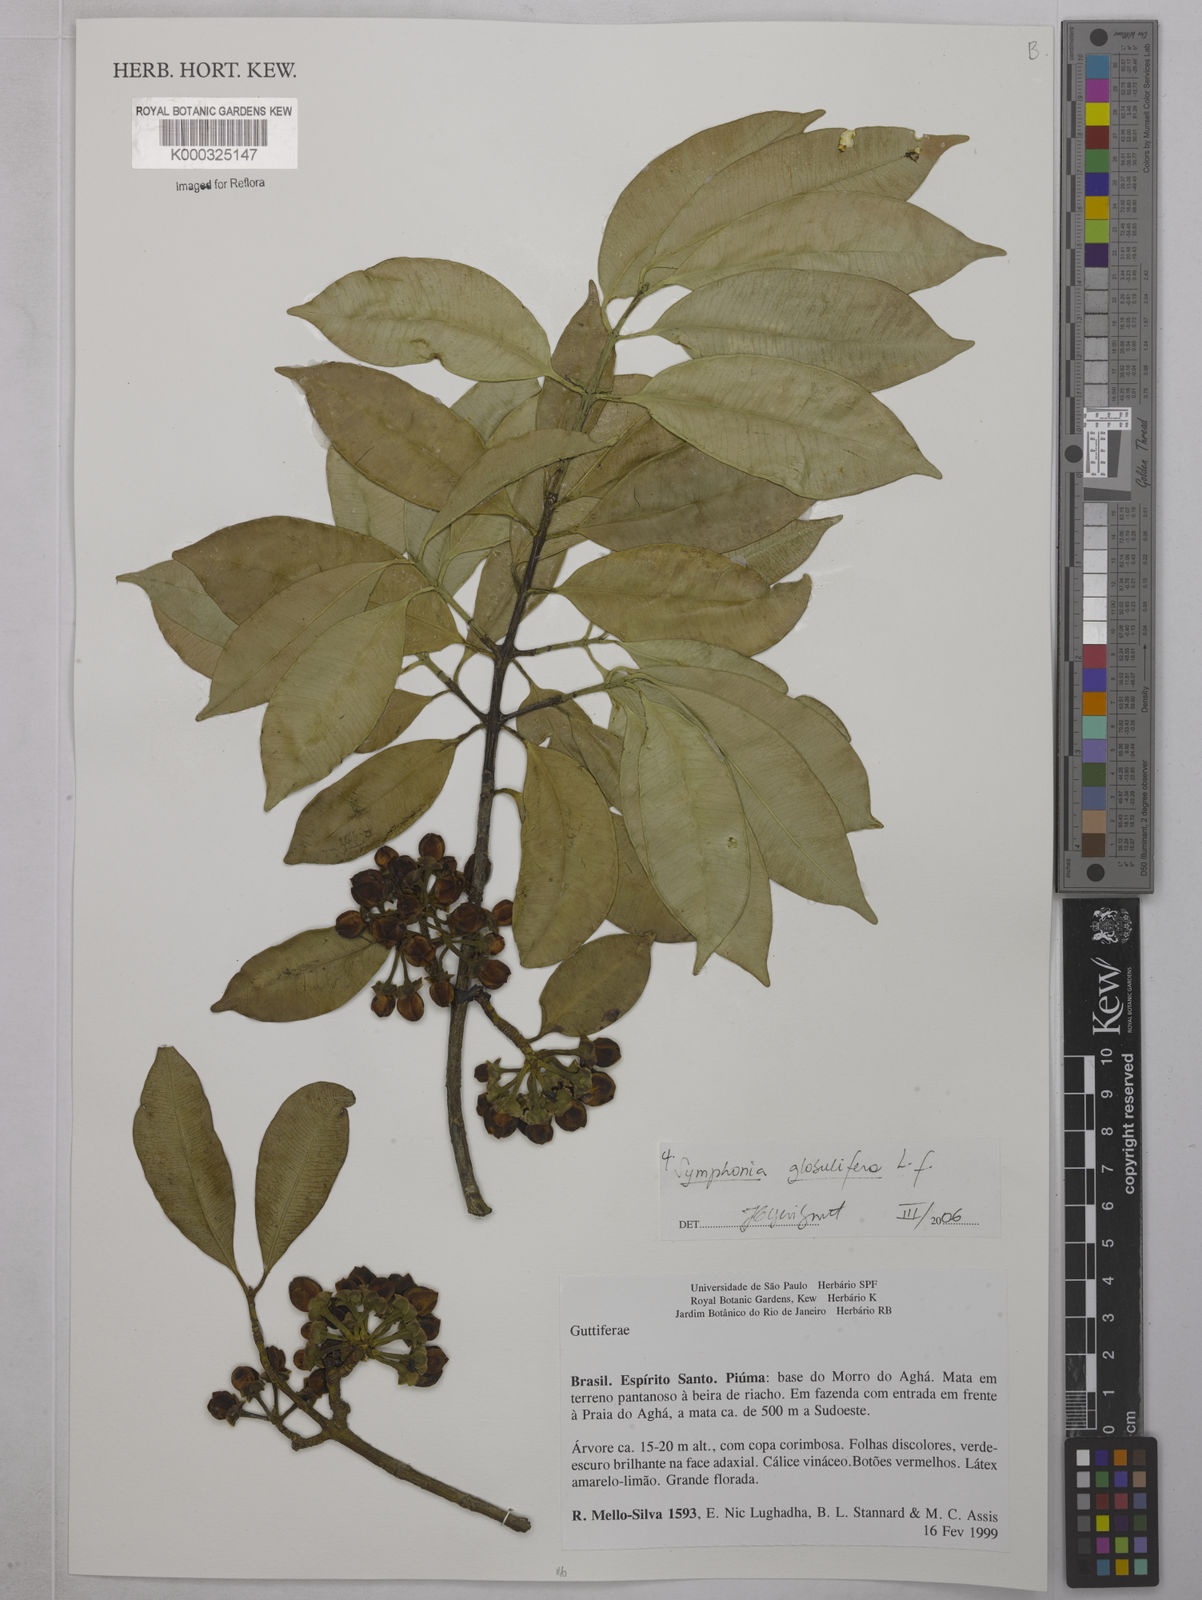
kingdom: Plantae
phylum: Tracheophyta
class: Magnoliopsida
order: Malpighiales
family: Clusiaceae
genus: Symphonia
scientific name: Symphonia globulifera
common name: Boarwood
